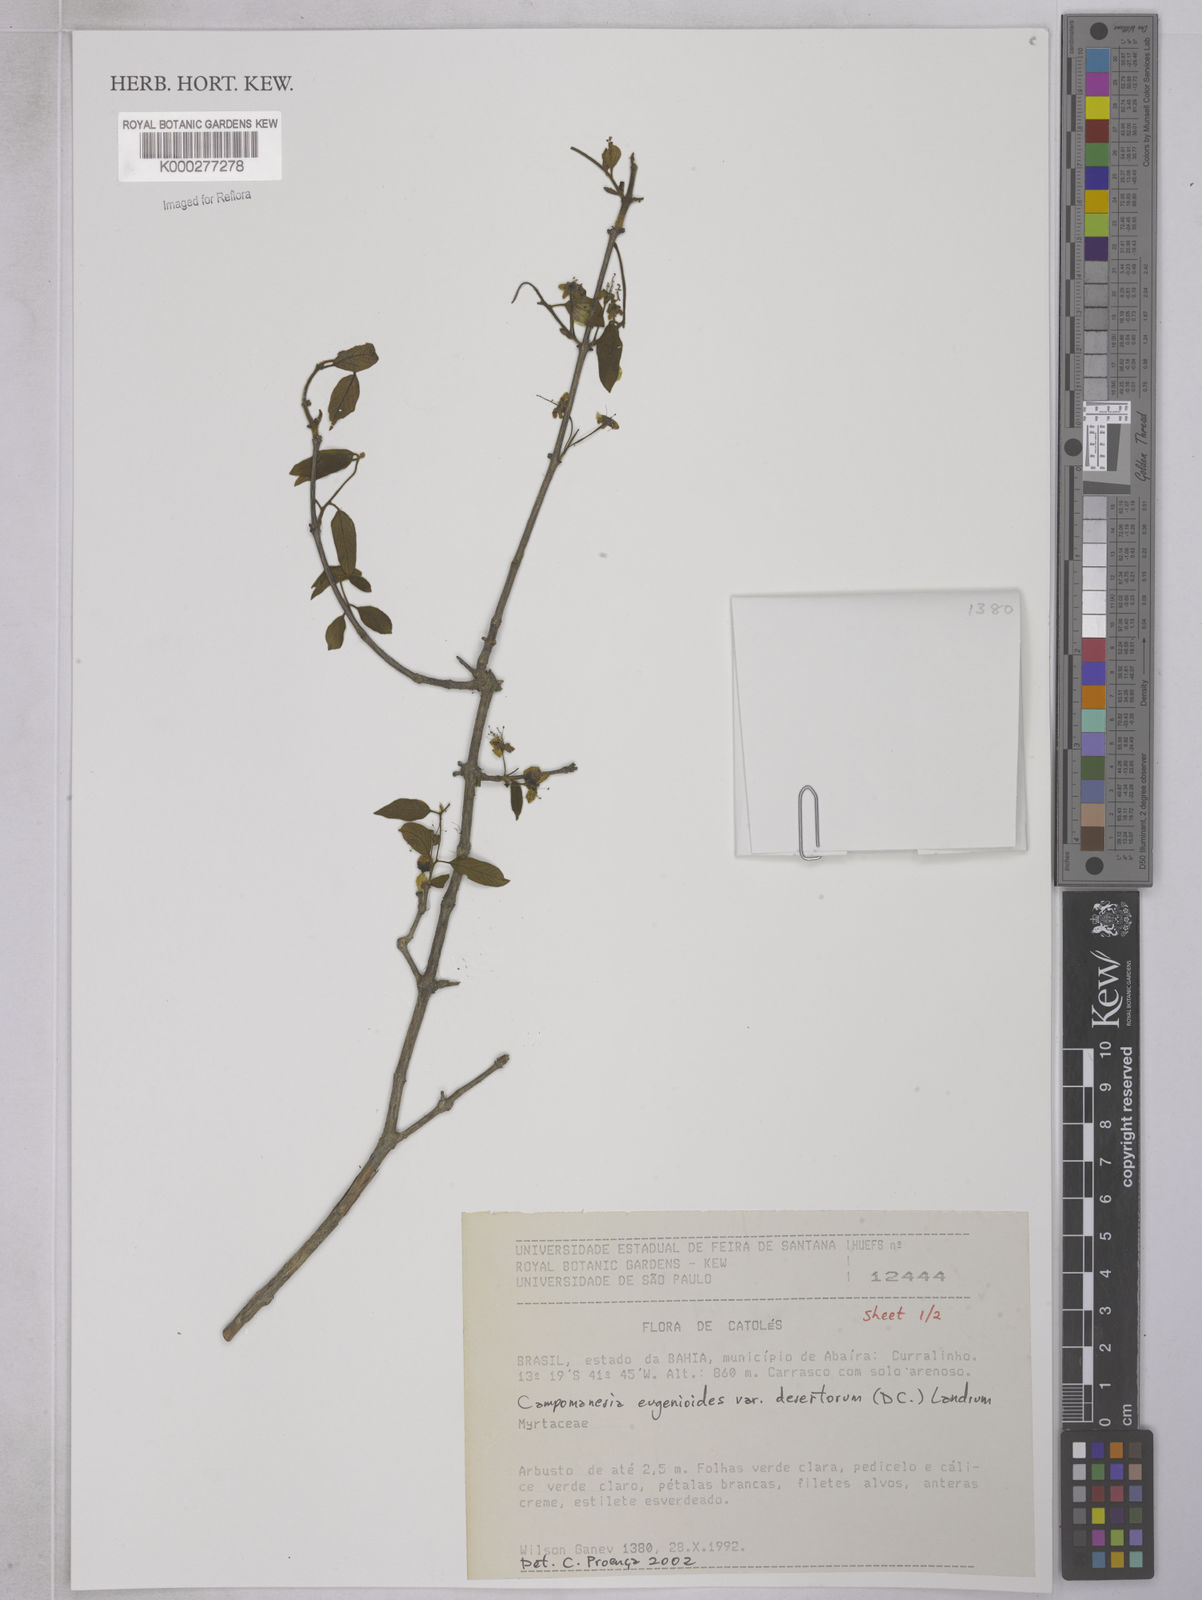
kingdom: Plantae
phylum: Tracheophyta
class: Magnoliopsida
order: Myrtales
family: Myrtaceae
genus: Campomanesia
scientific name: Campomanesia eugenioides
